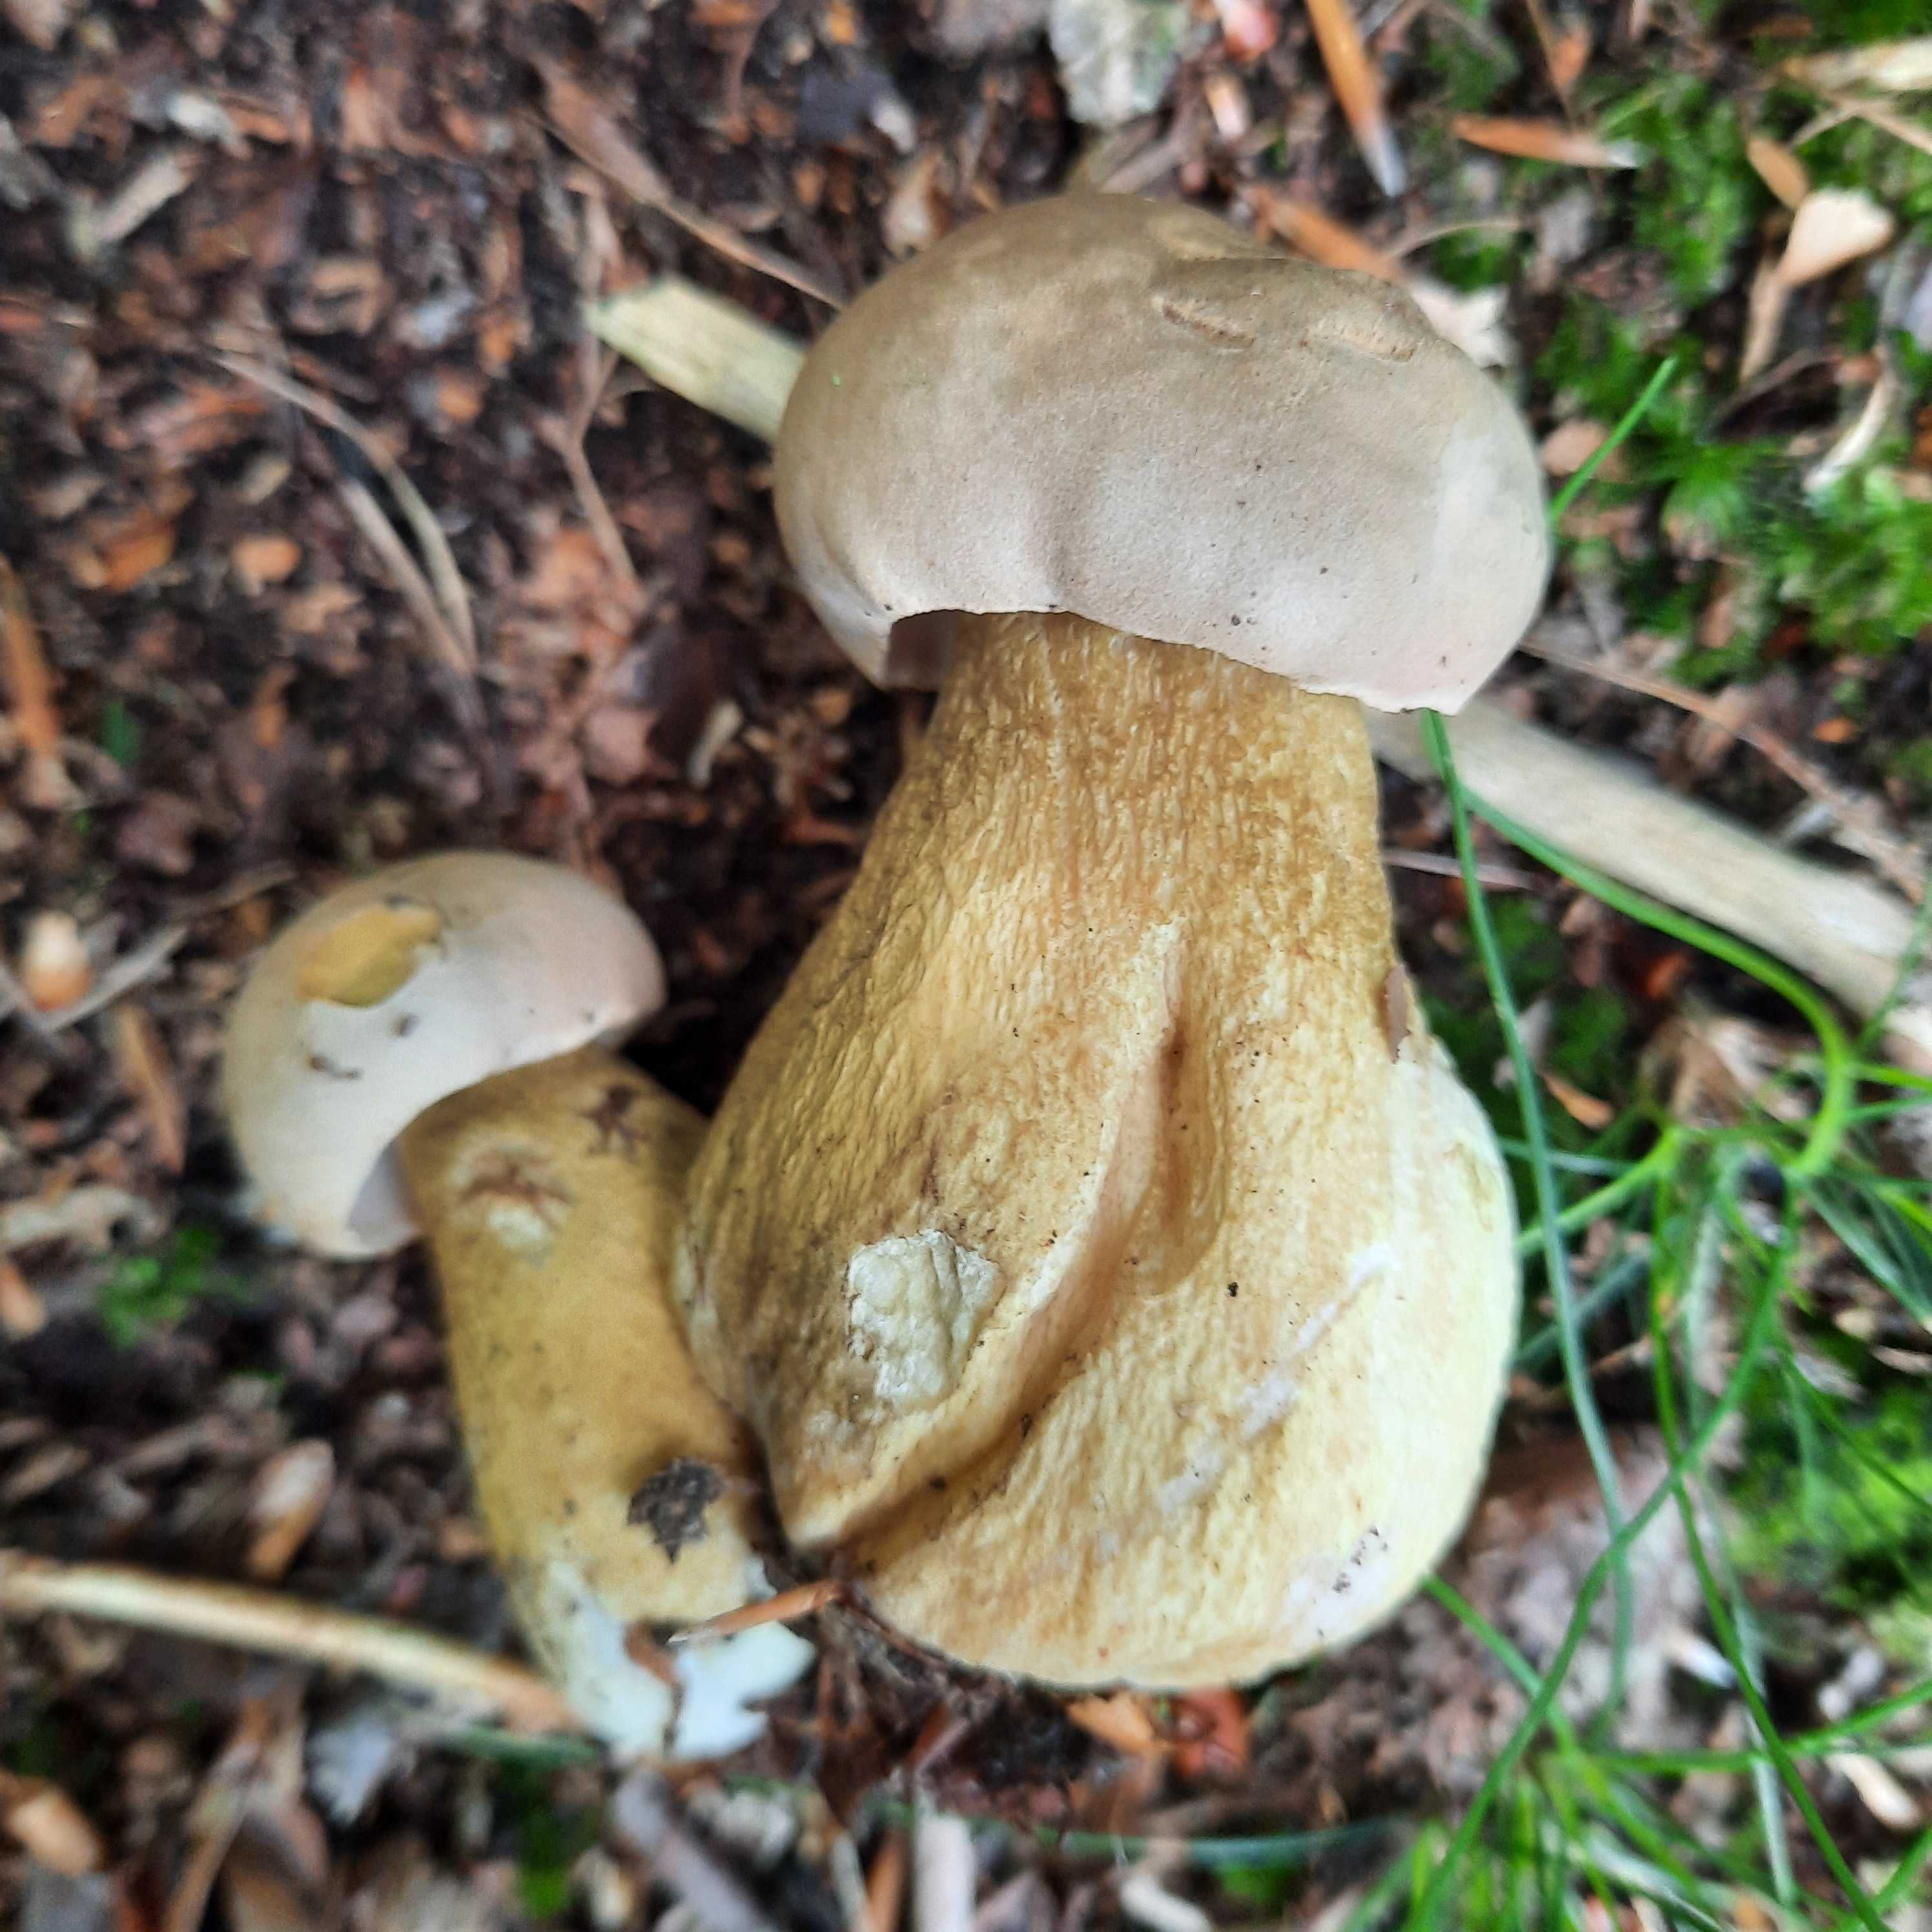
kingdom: Fungi
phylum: Basidiomycota
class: Agaricomycetes
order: Boletales
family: Boletaceae
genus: Tylopilus
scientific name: Tylopilus felleus
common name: galderørhat
